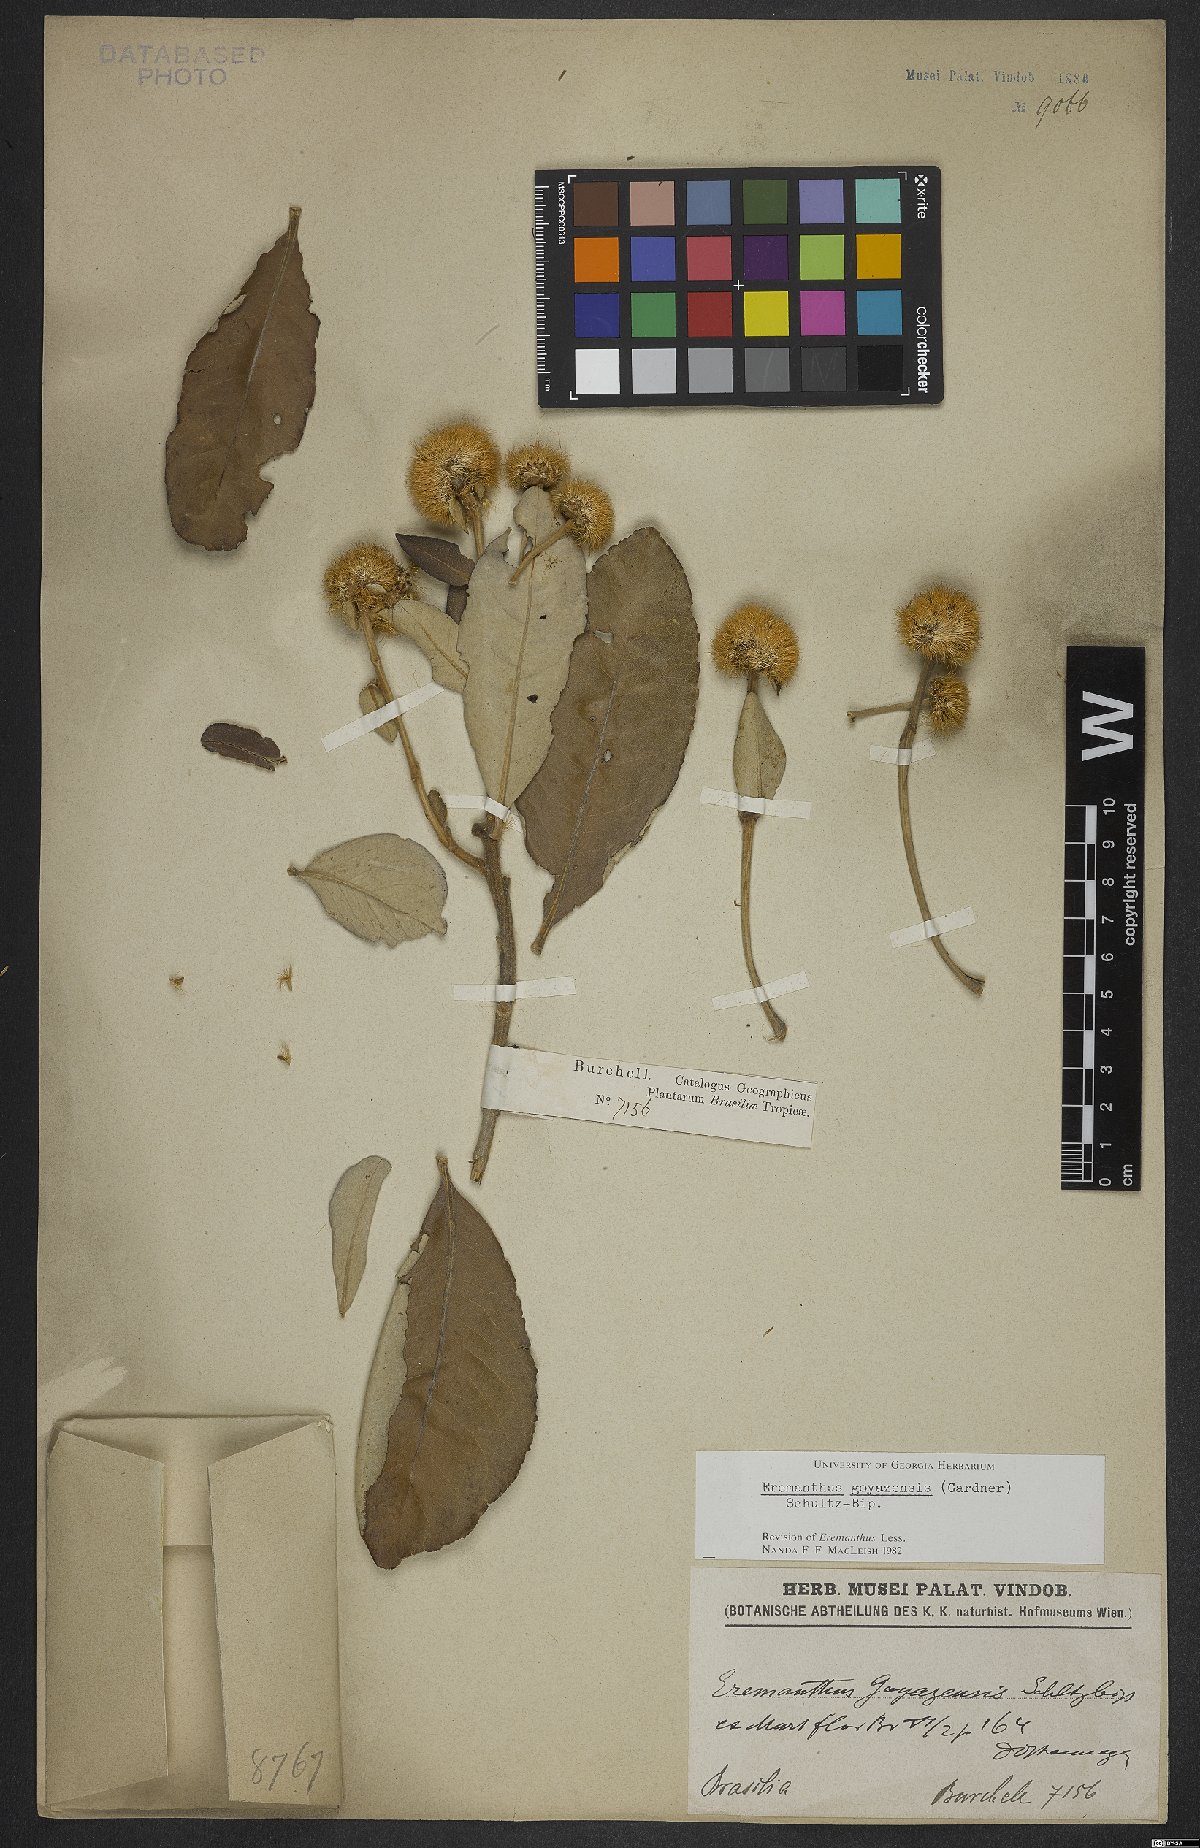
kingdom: Plantae
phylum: Tracheophyta
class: Magnoliopsida
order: Asterales
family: Asteraceae
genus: Ayapana
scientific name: Ayapana amygdalina
